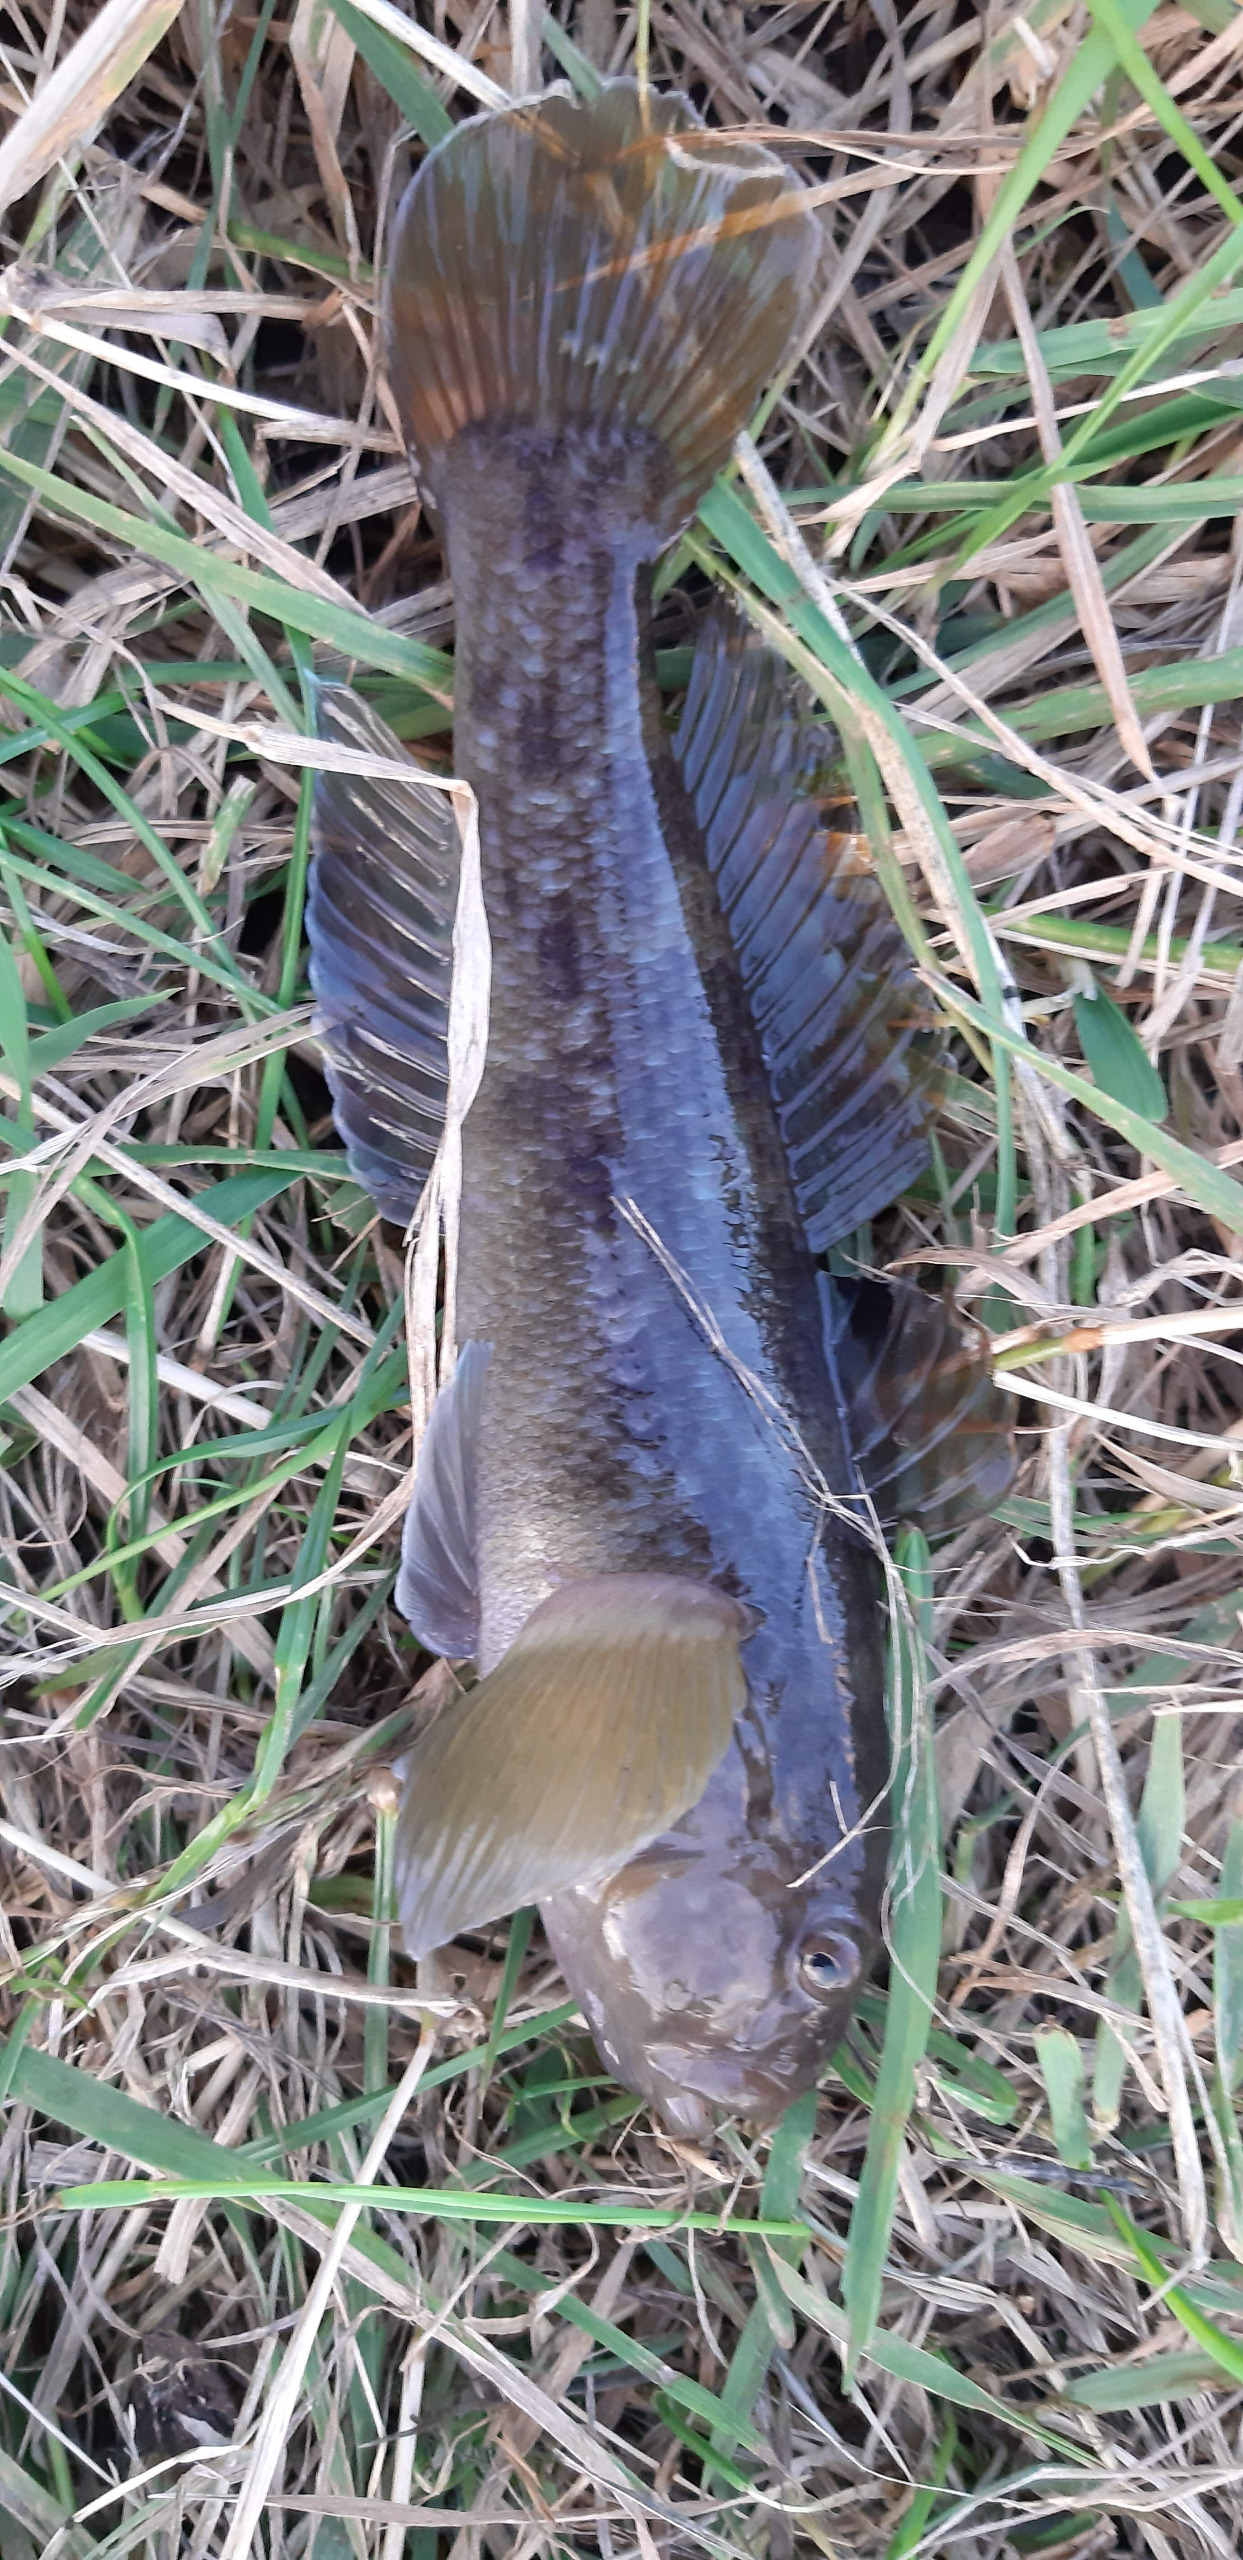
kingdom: Animalia
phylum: Chordata
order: Perciformes
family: Gobiidae
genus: Neogobius
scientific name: Neogobius melanostomus
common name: Sortmundet kutling
